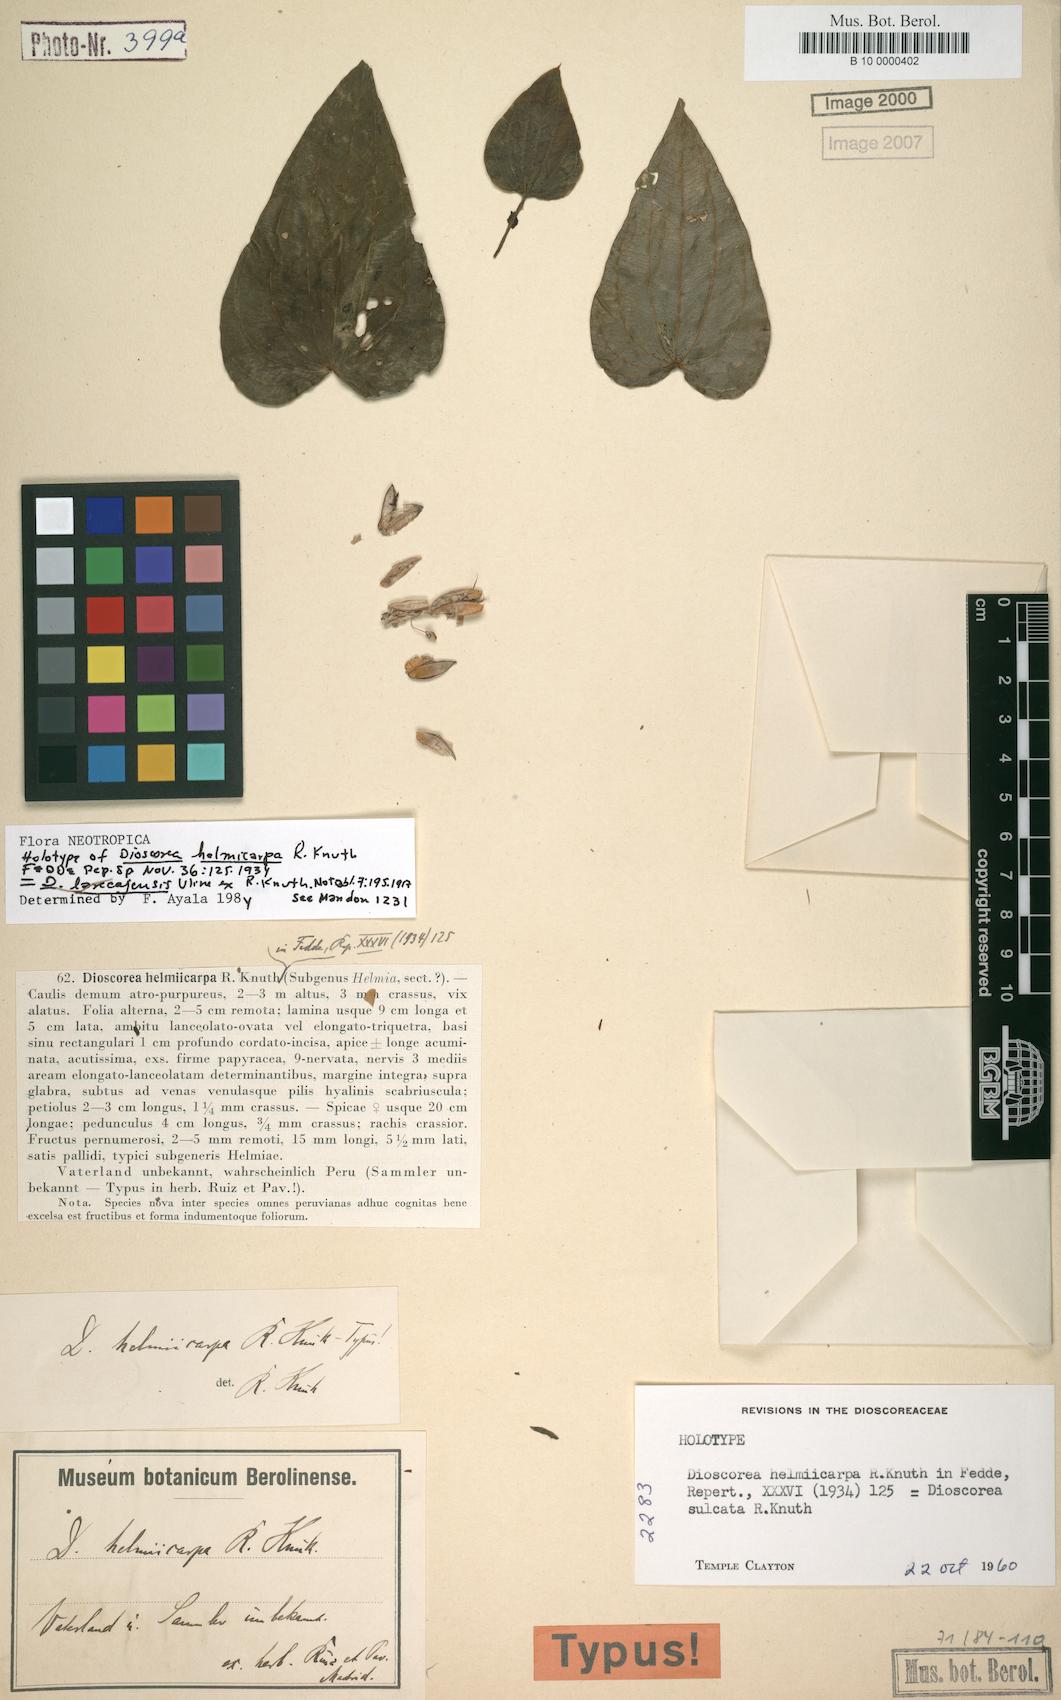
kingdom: Plantae
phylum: Tracheophyta
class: Liliopsida
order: Dioscoreales
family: Dioscoreaceae
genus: Dioscorea
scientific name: Dioscorea piperifolia
